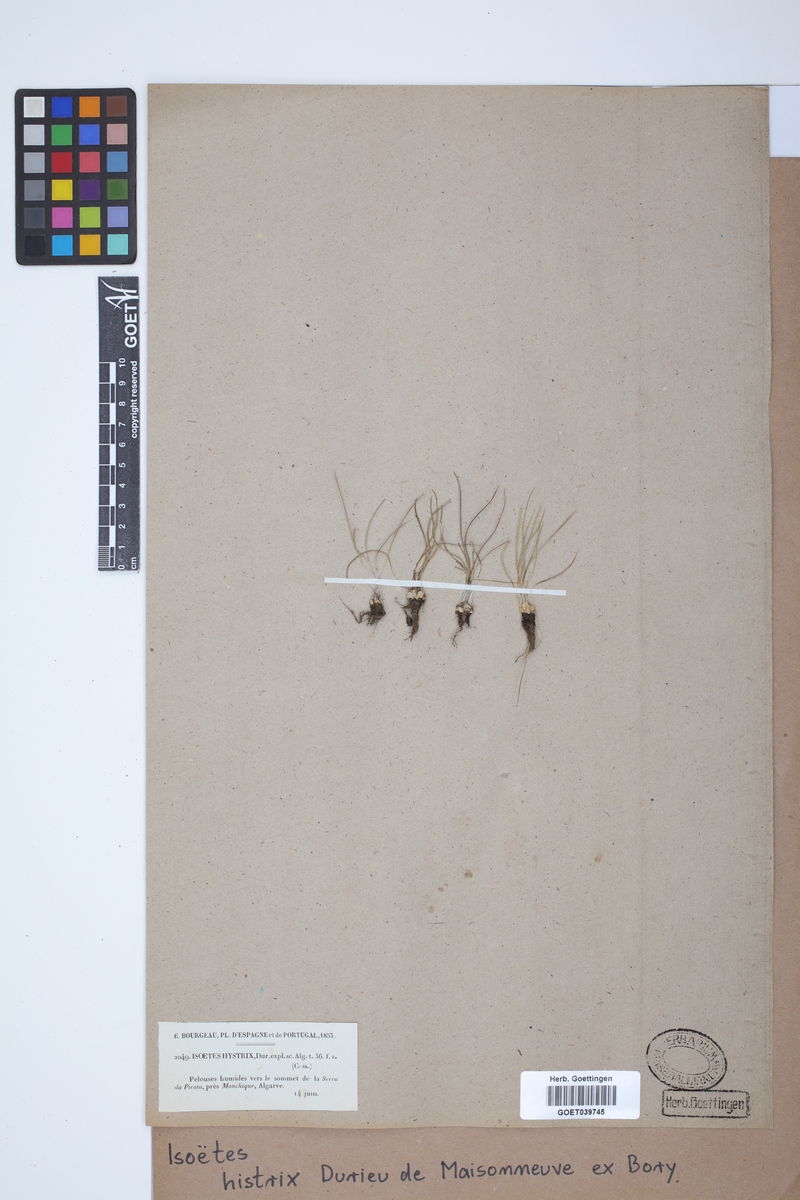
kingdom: Plantae
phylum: Tracheophyta
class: Lycopodiopsida
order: Isoetales
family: Isoetaceae
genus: Isoetes
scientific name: Isoetes histrix
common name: Land quillwort
